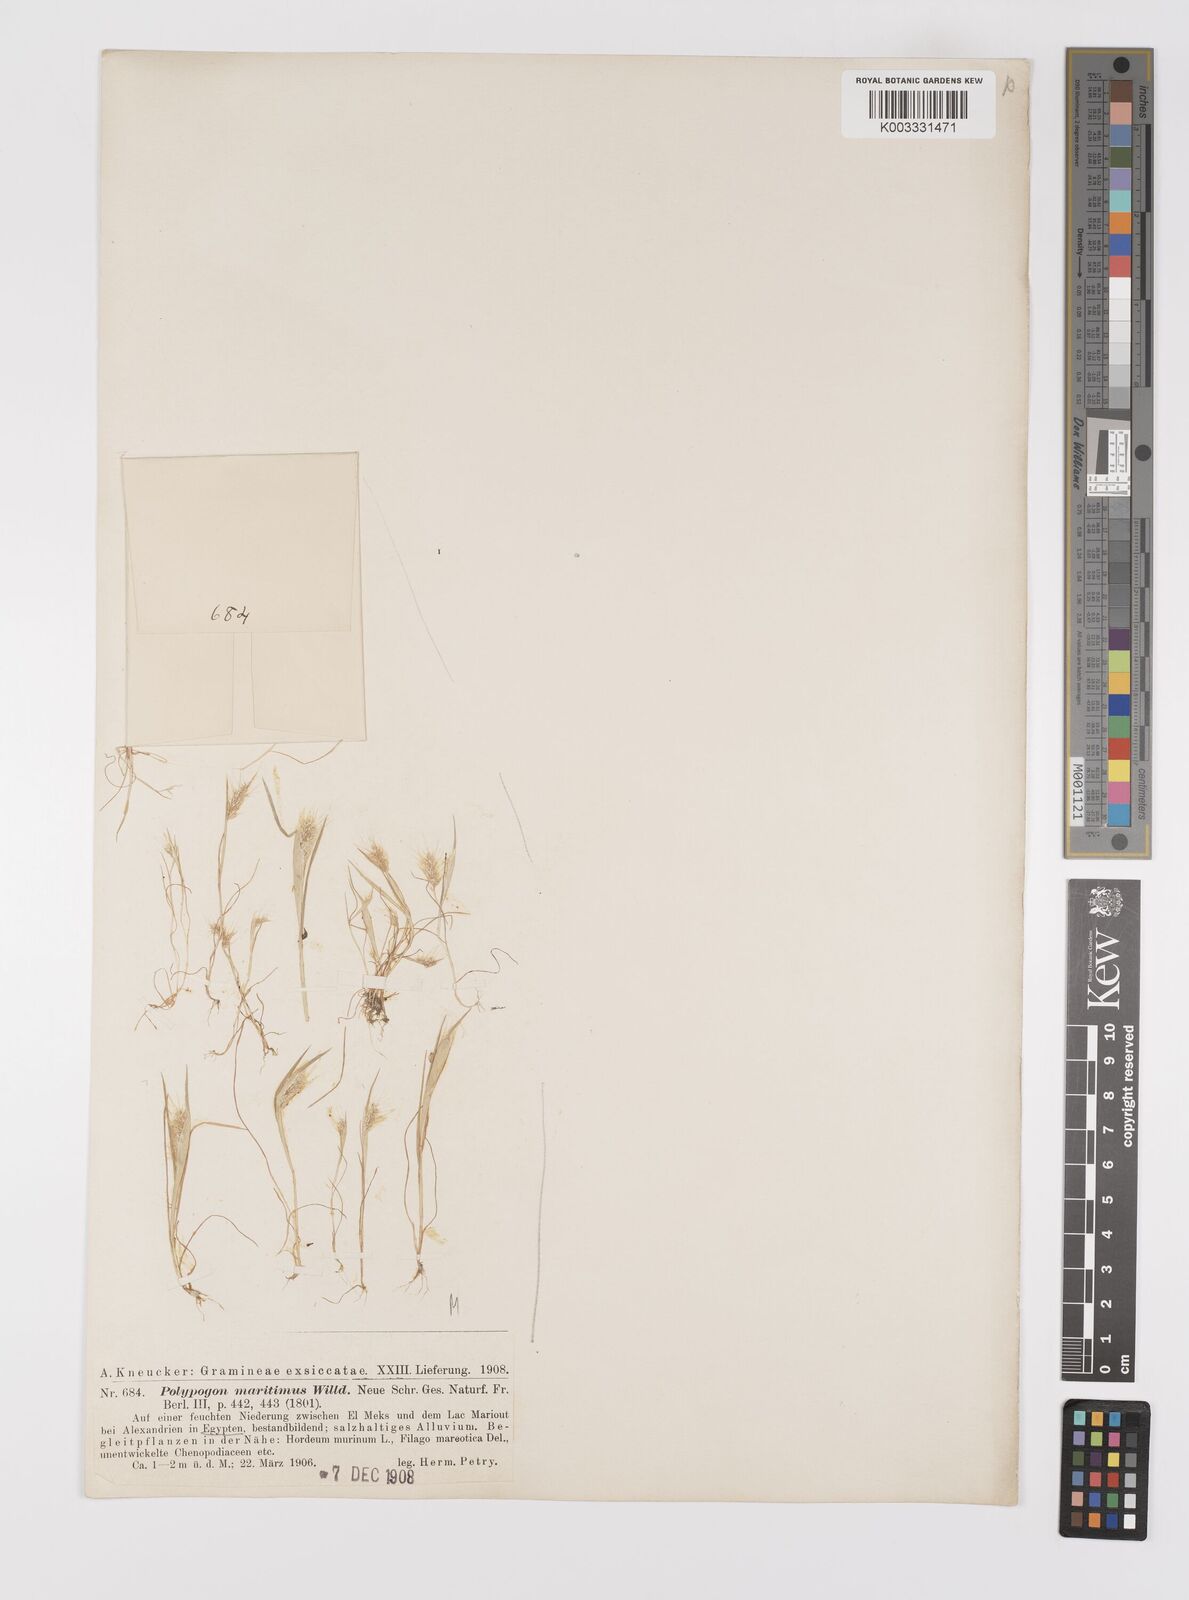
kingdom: Plantae
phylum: Tracheophyta
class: Liliopsida
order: Poales
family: Poaceae
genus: Polypogon
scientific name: Polypogon maritimus
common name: Mediterranean rabbitsfoot grass
